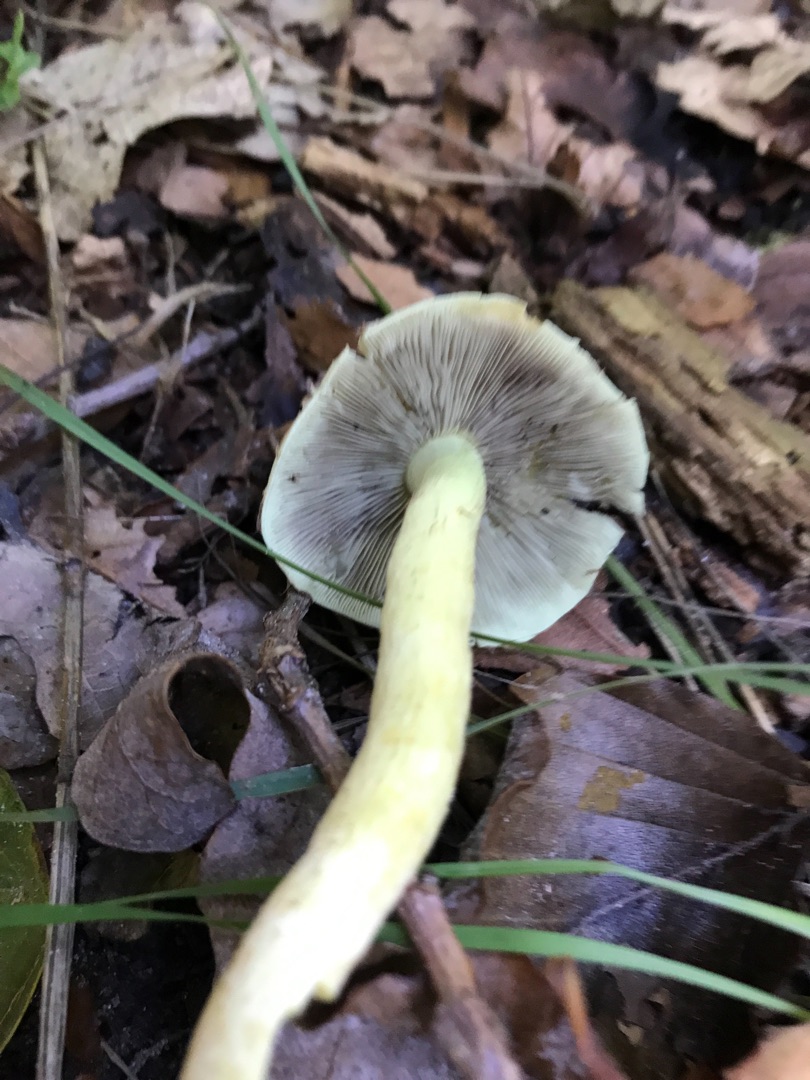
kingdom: Fungi
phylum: Basidiomycota
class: Agaricomycetes
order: Agaricales
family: Strophariaceae
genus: Hypholoma
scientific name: Hypholoma fasciculare
